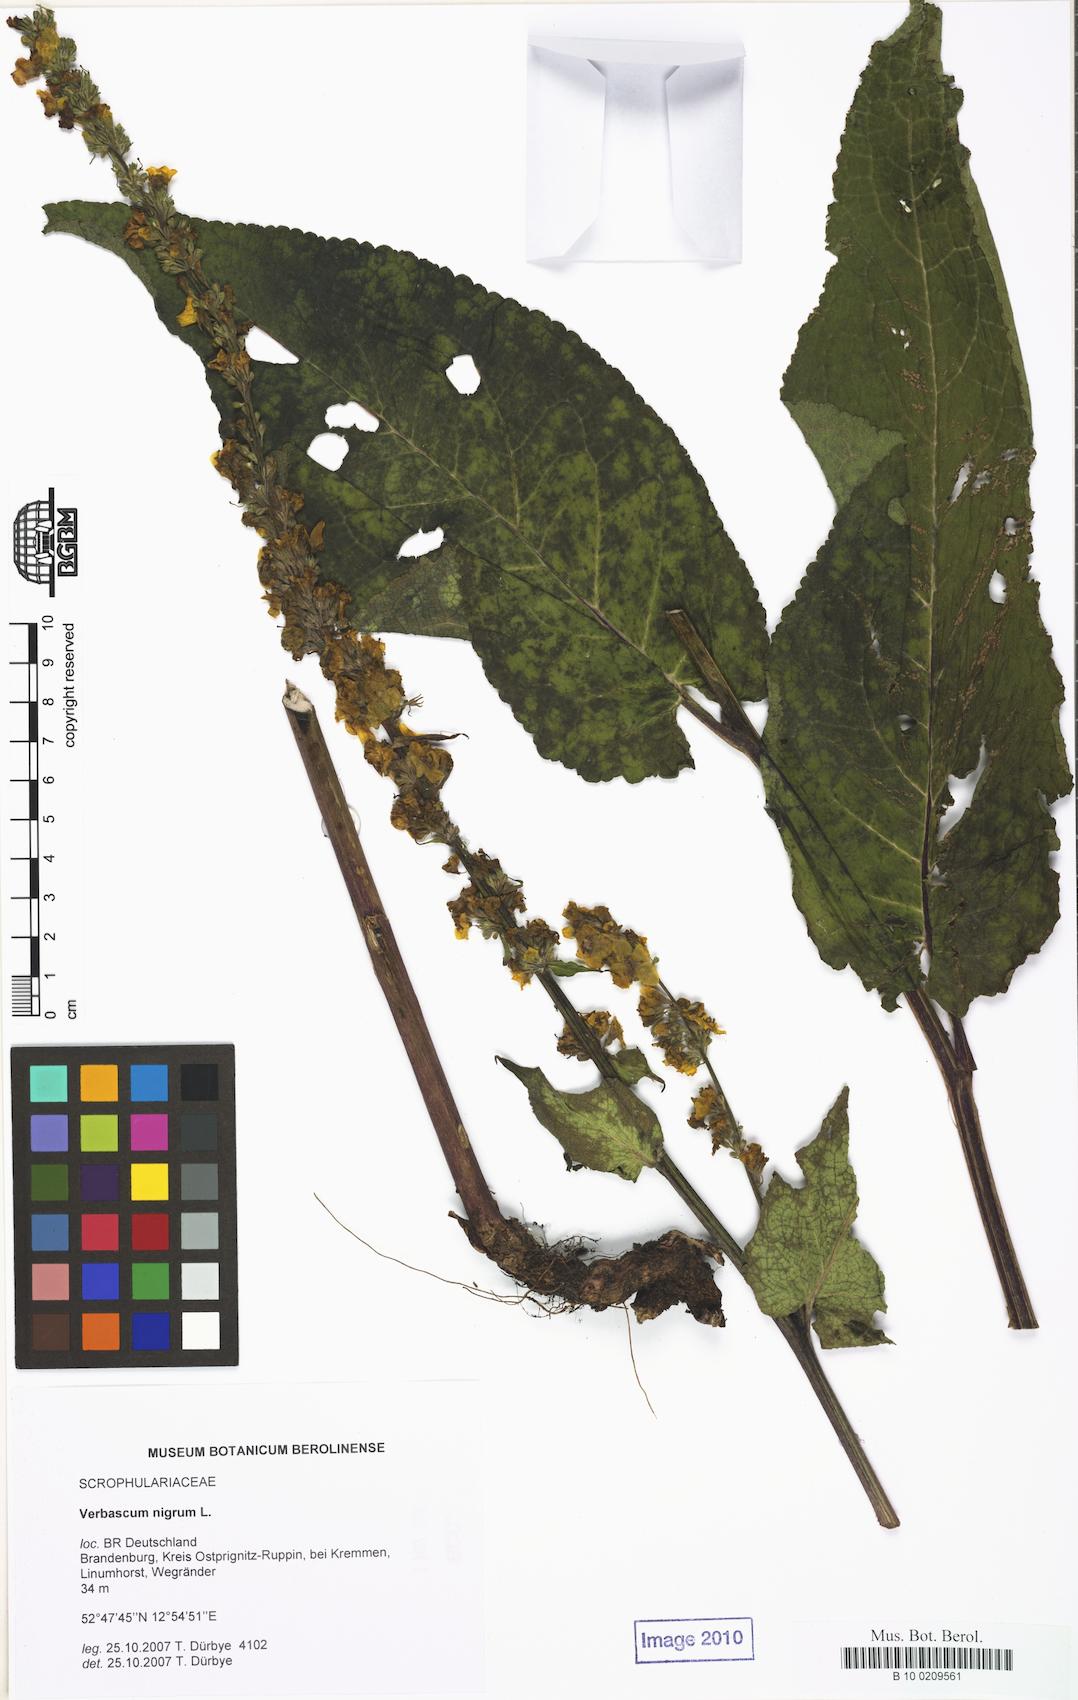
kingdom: Plantae
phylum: Tracheophyta
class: Magnoliopsida
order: Lamiales
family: Scrophulariaceae
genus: Verbascum
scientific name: Verbascum nigrum
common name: Dark mullein
